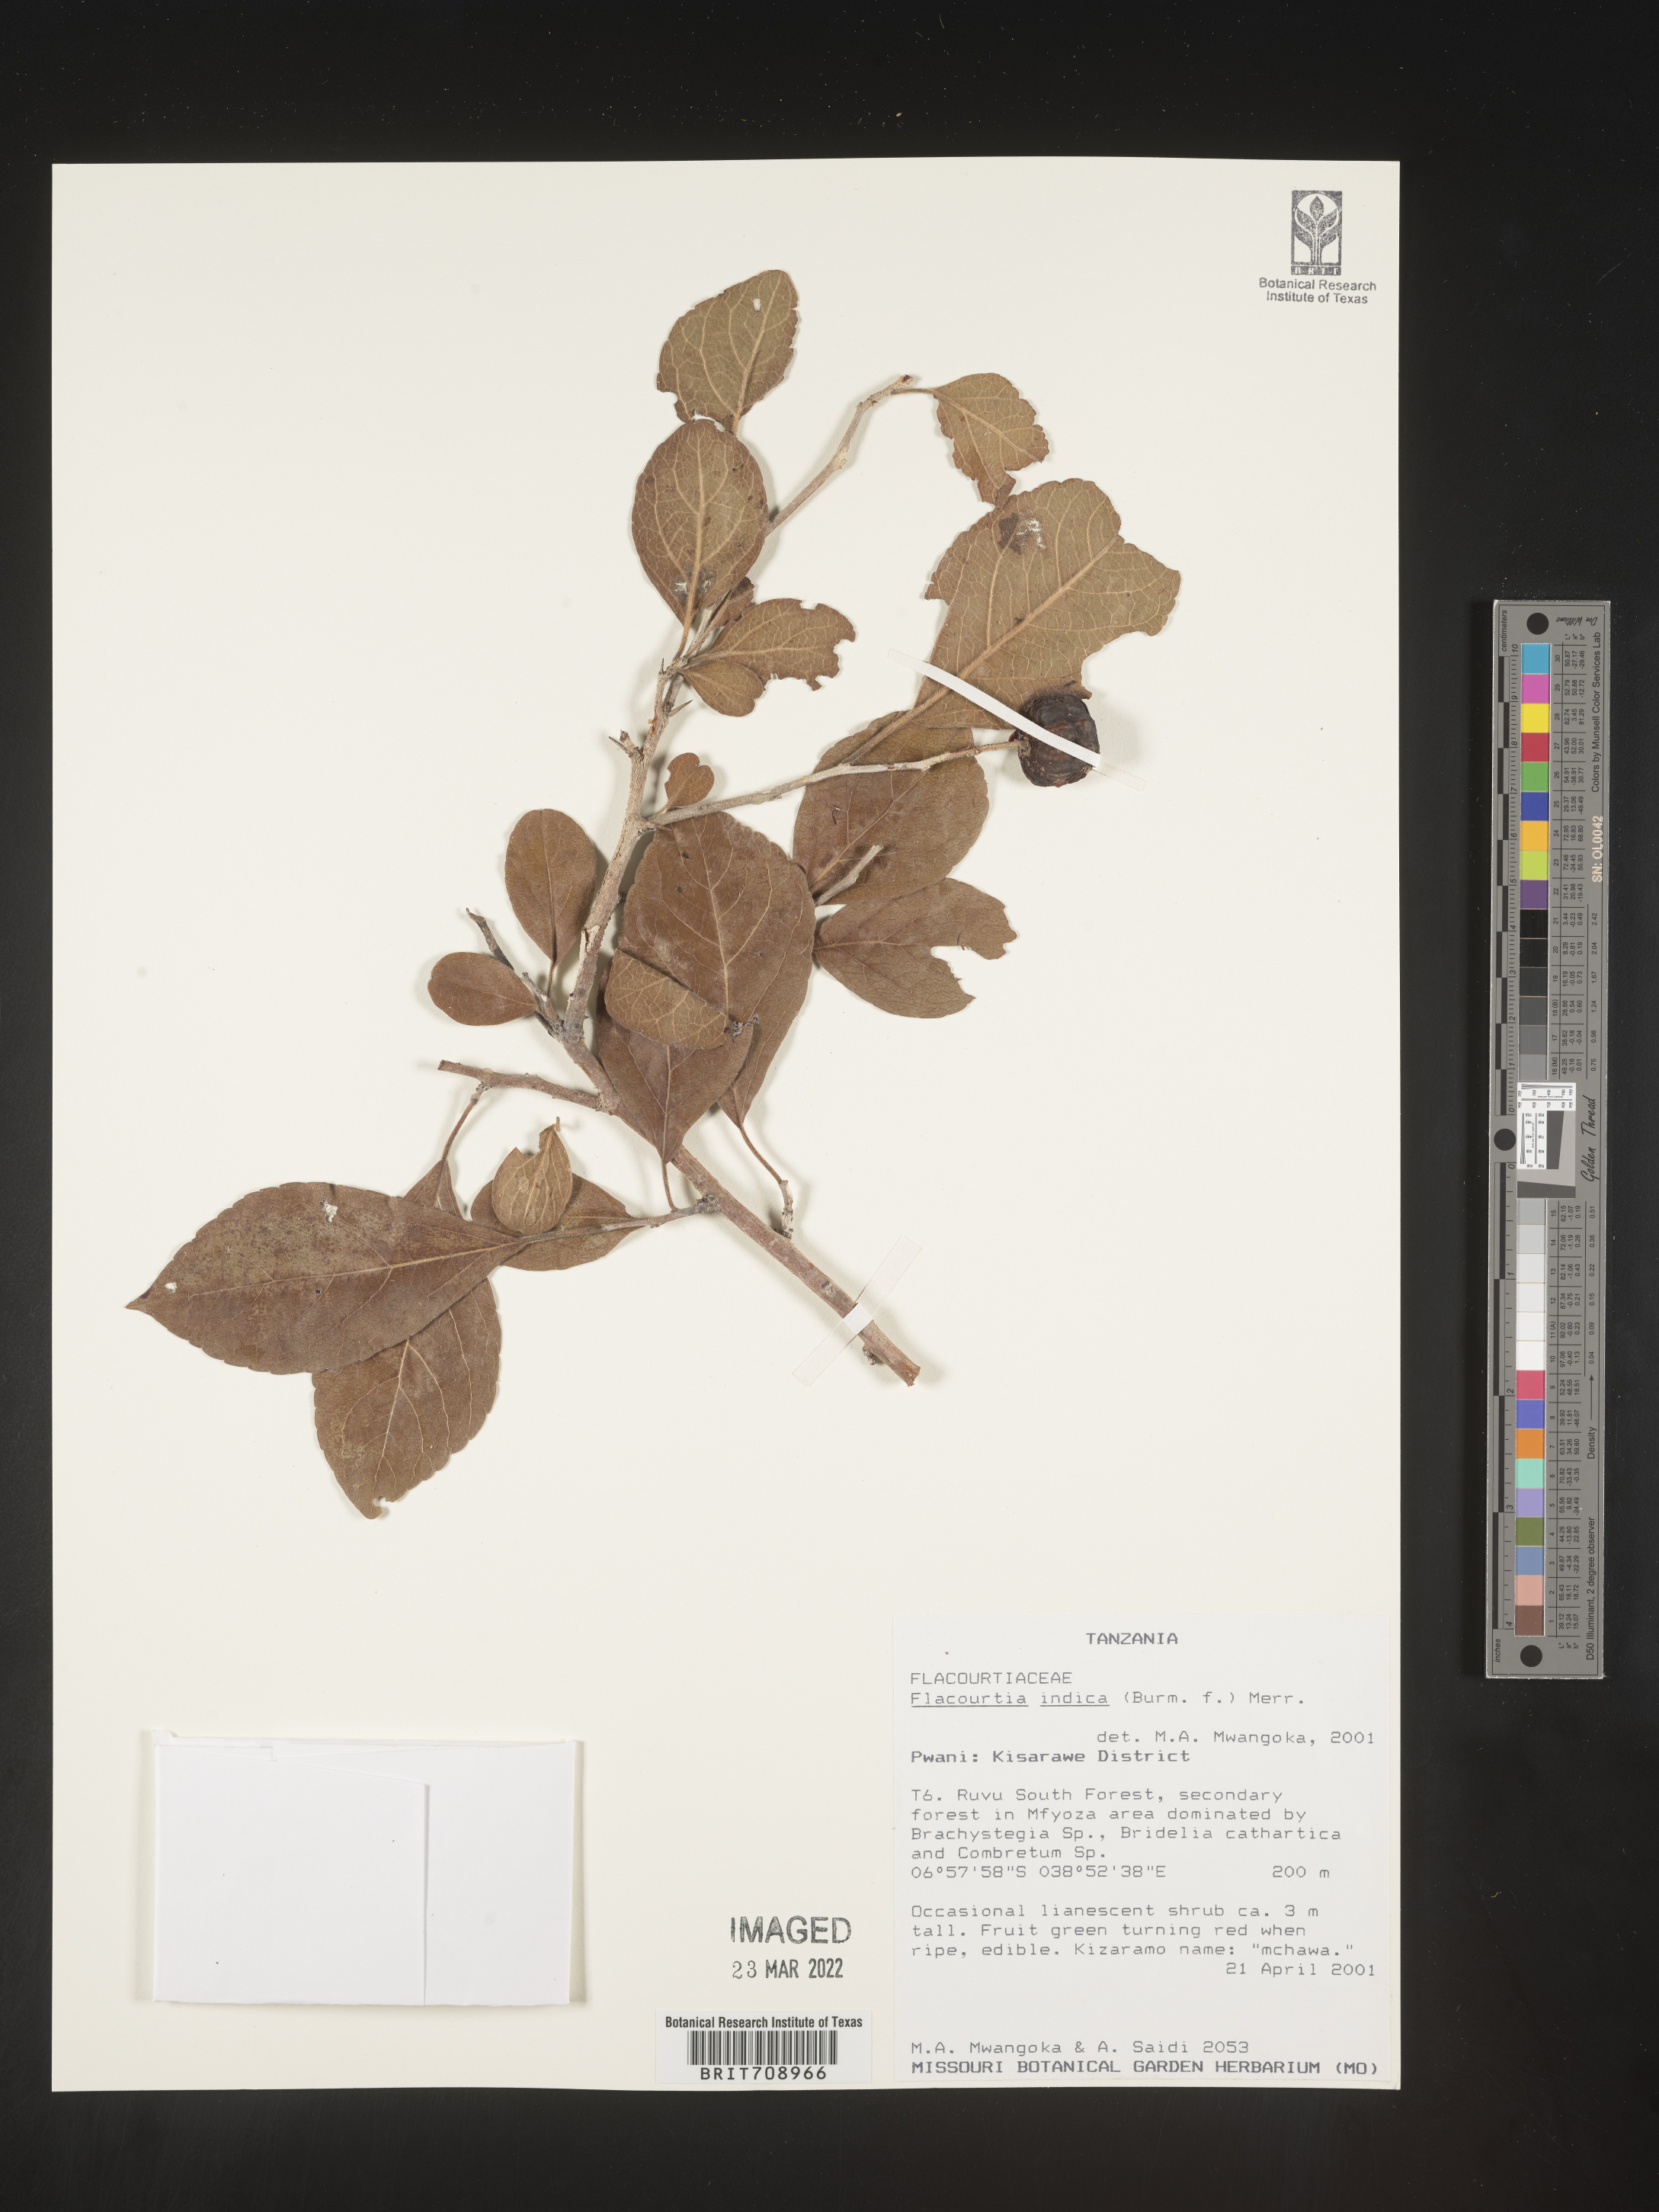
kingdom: Plantae
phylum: Tracheophyta
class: Magnoliopsida
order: Malpighiales
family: Salicaceae
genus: Flacourtia
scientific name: Flacourtia
